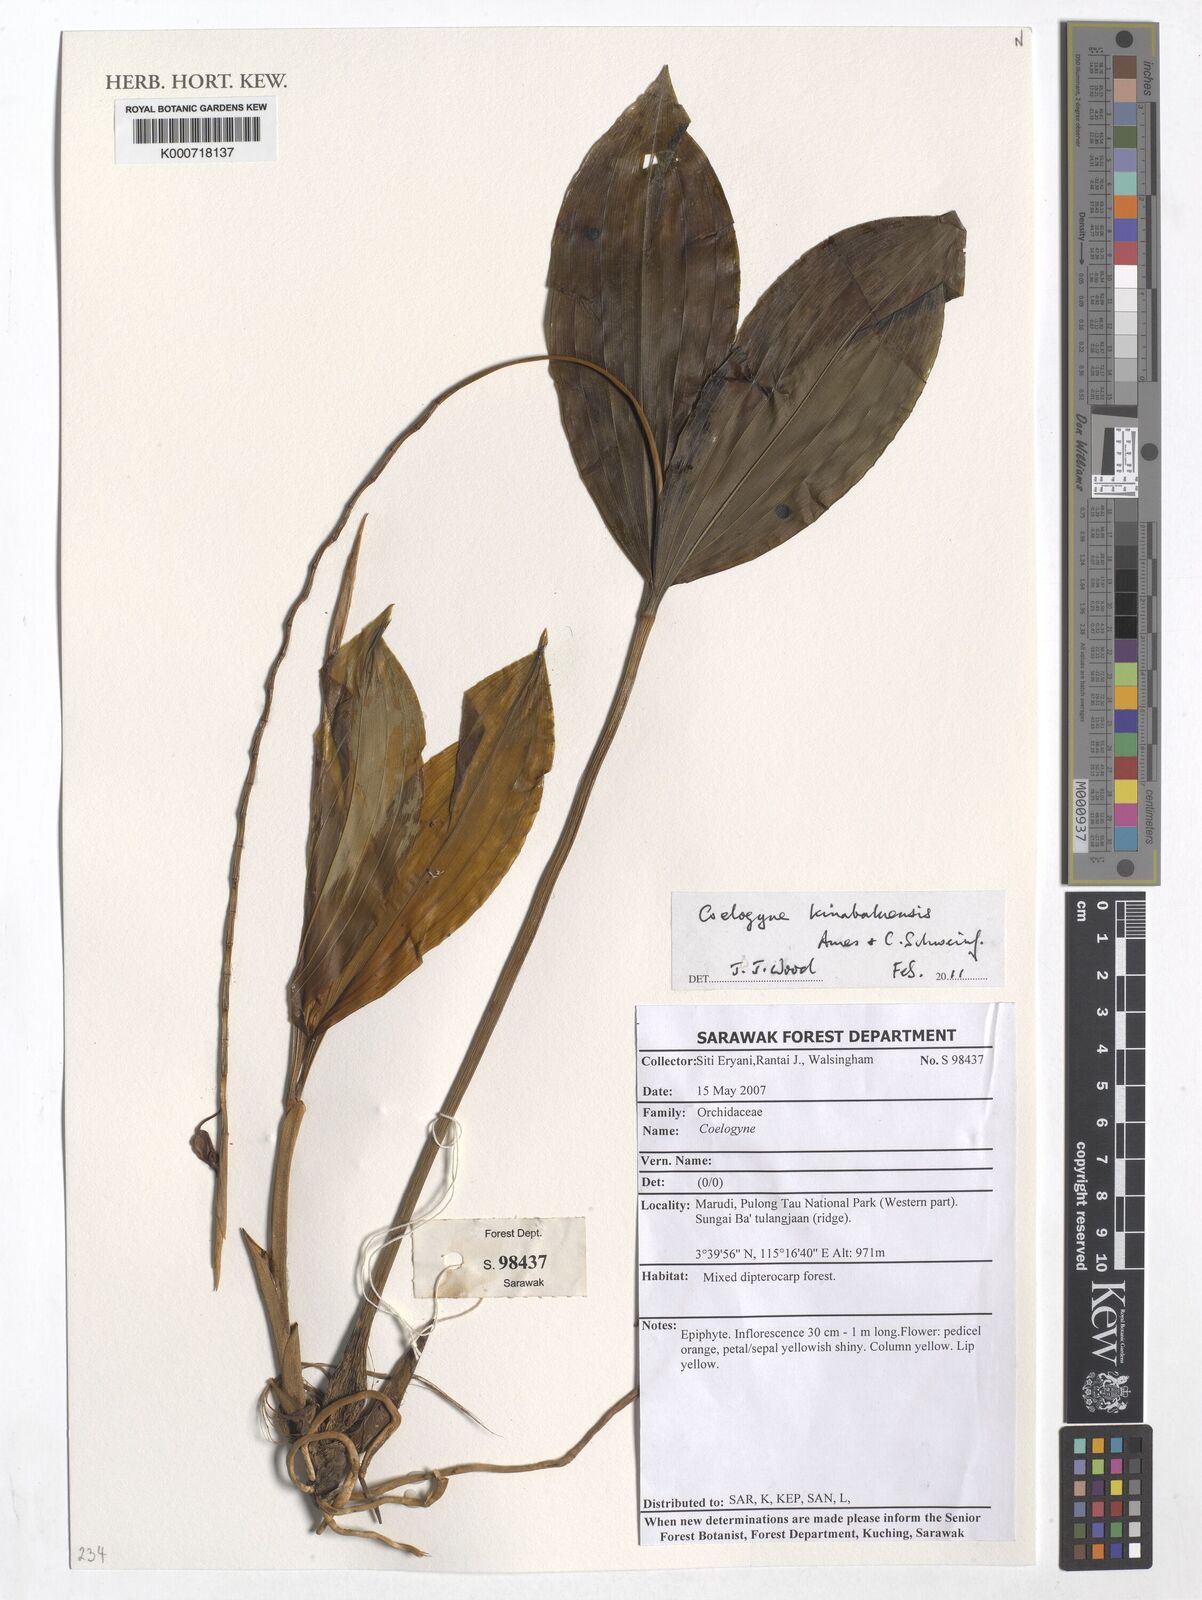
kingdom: Plantae
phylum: Tracheophyta
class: Liliopsida
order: Asparagales
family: Orchidaceae
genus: Coelogyne
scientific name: Coelogyne kinabaluensis
